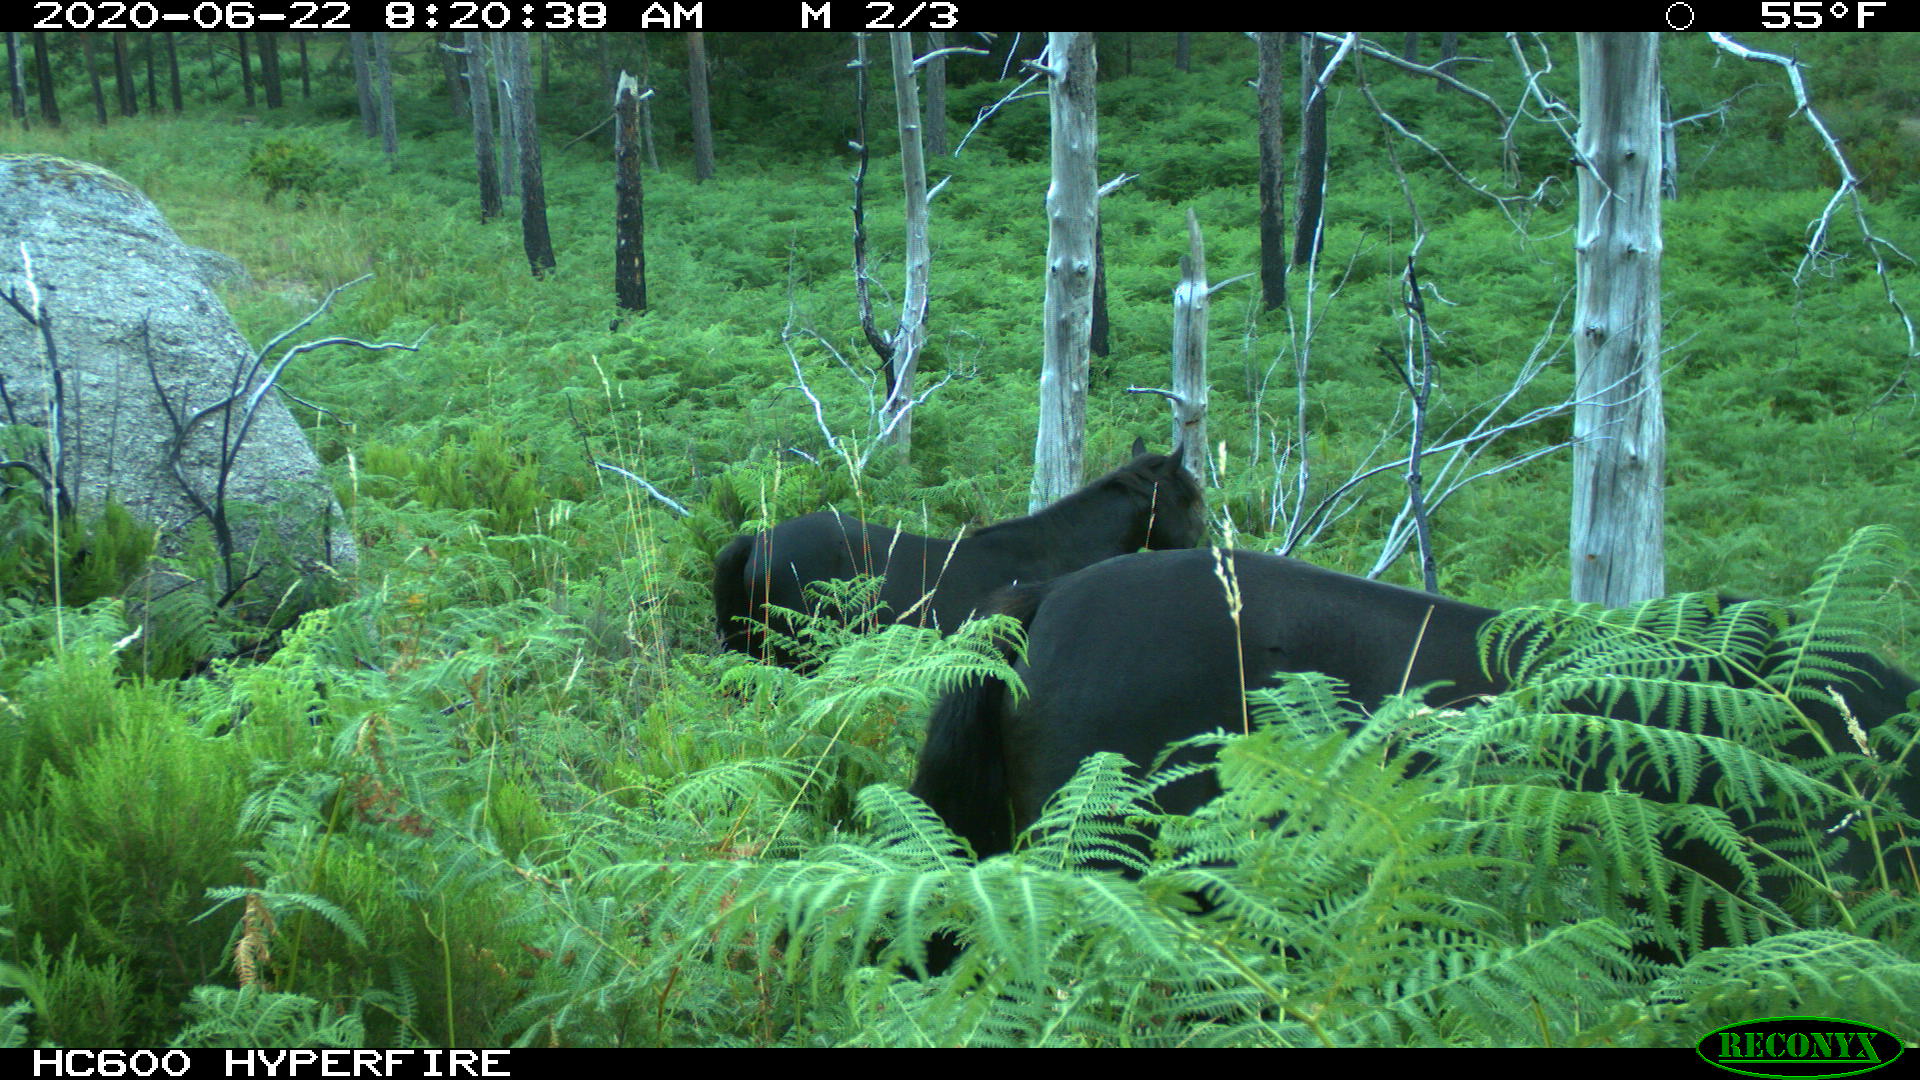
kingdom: Animalia
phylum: Chordata
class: Mammalia
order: Perissodactyla
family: Equidae
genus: Equus
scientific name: Equus caballus
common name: Horse
